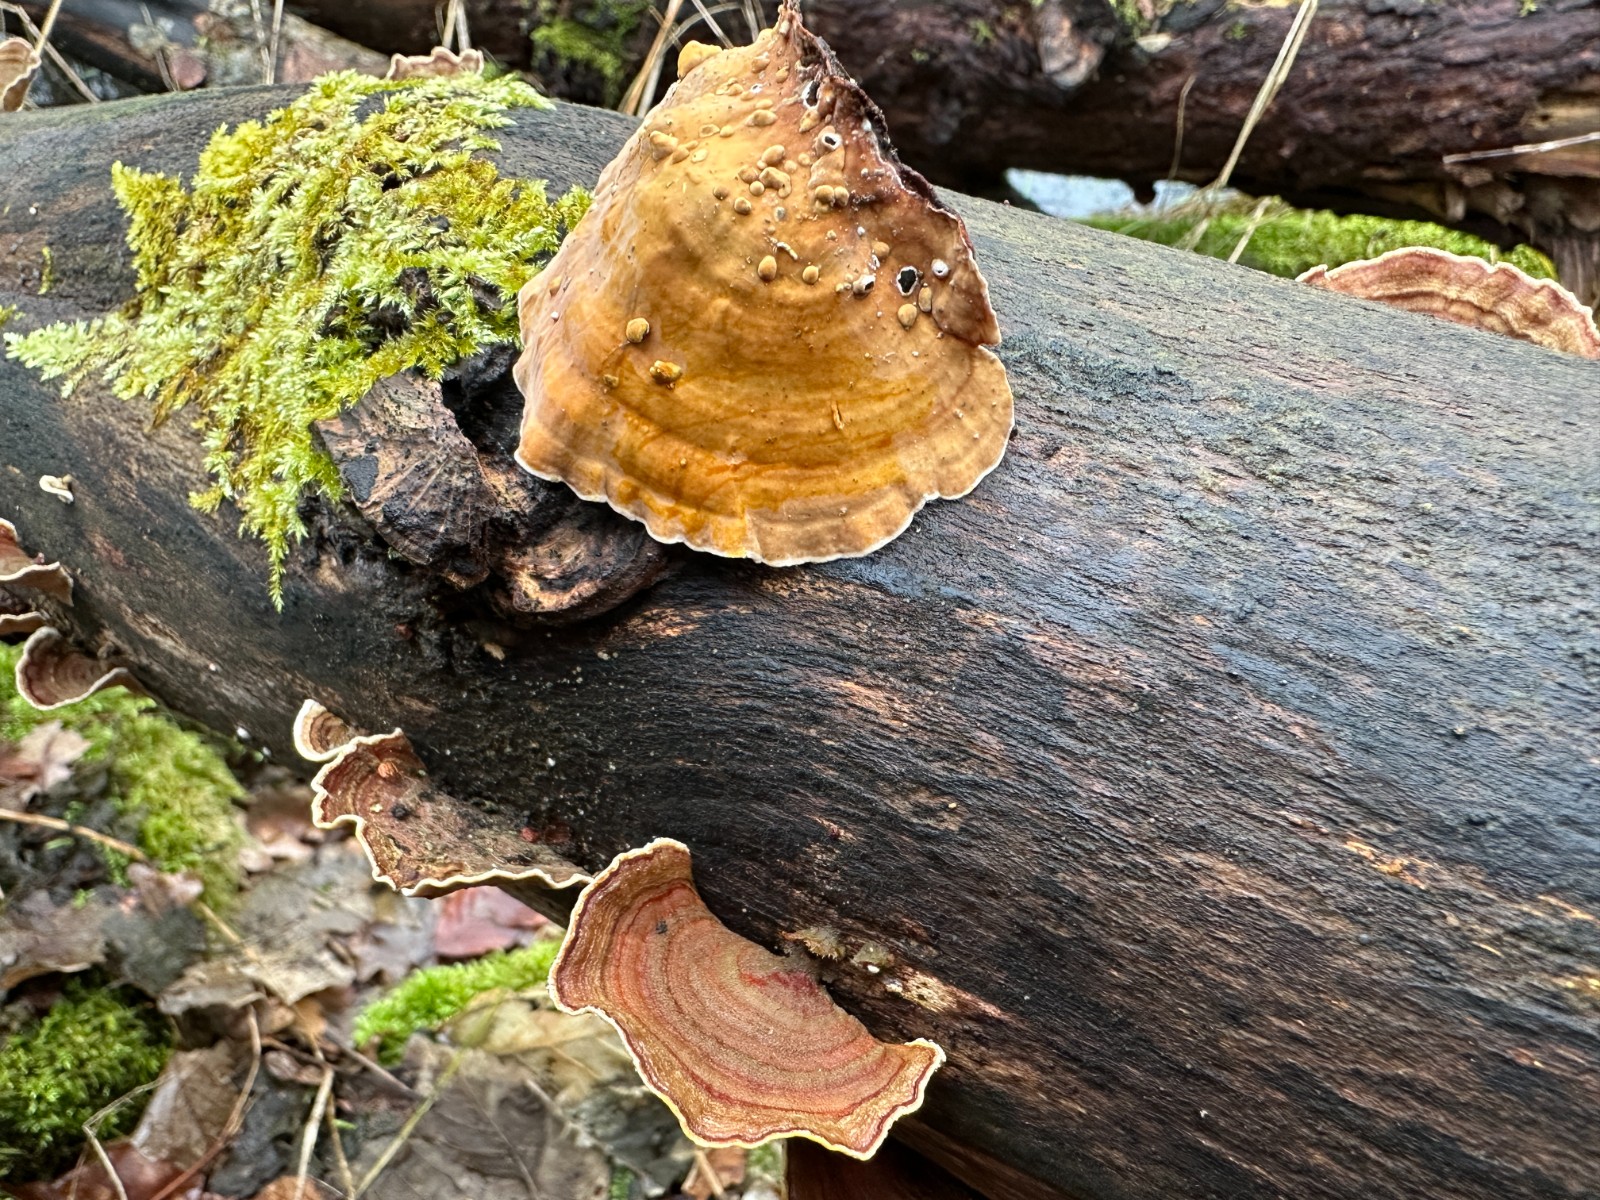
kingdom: Fungi
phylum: Basidiomycota
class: Agaricomycetes
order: Russulales
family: Stereaceae
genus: Stereum
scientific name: Stereum subtomentosum
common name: smuk lædersvamp
